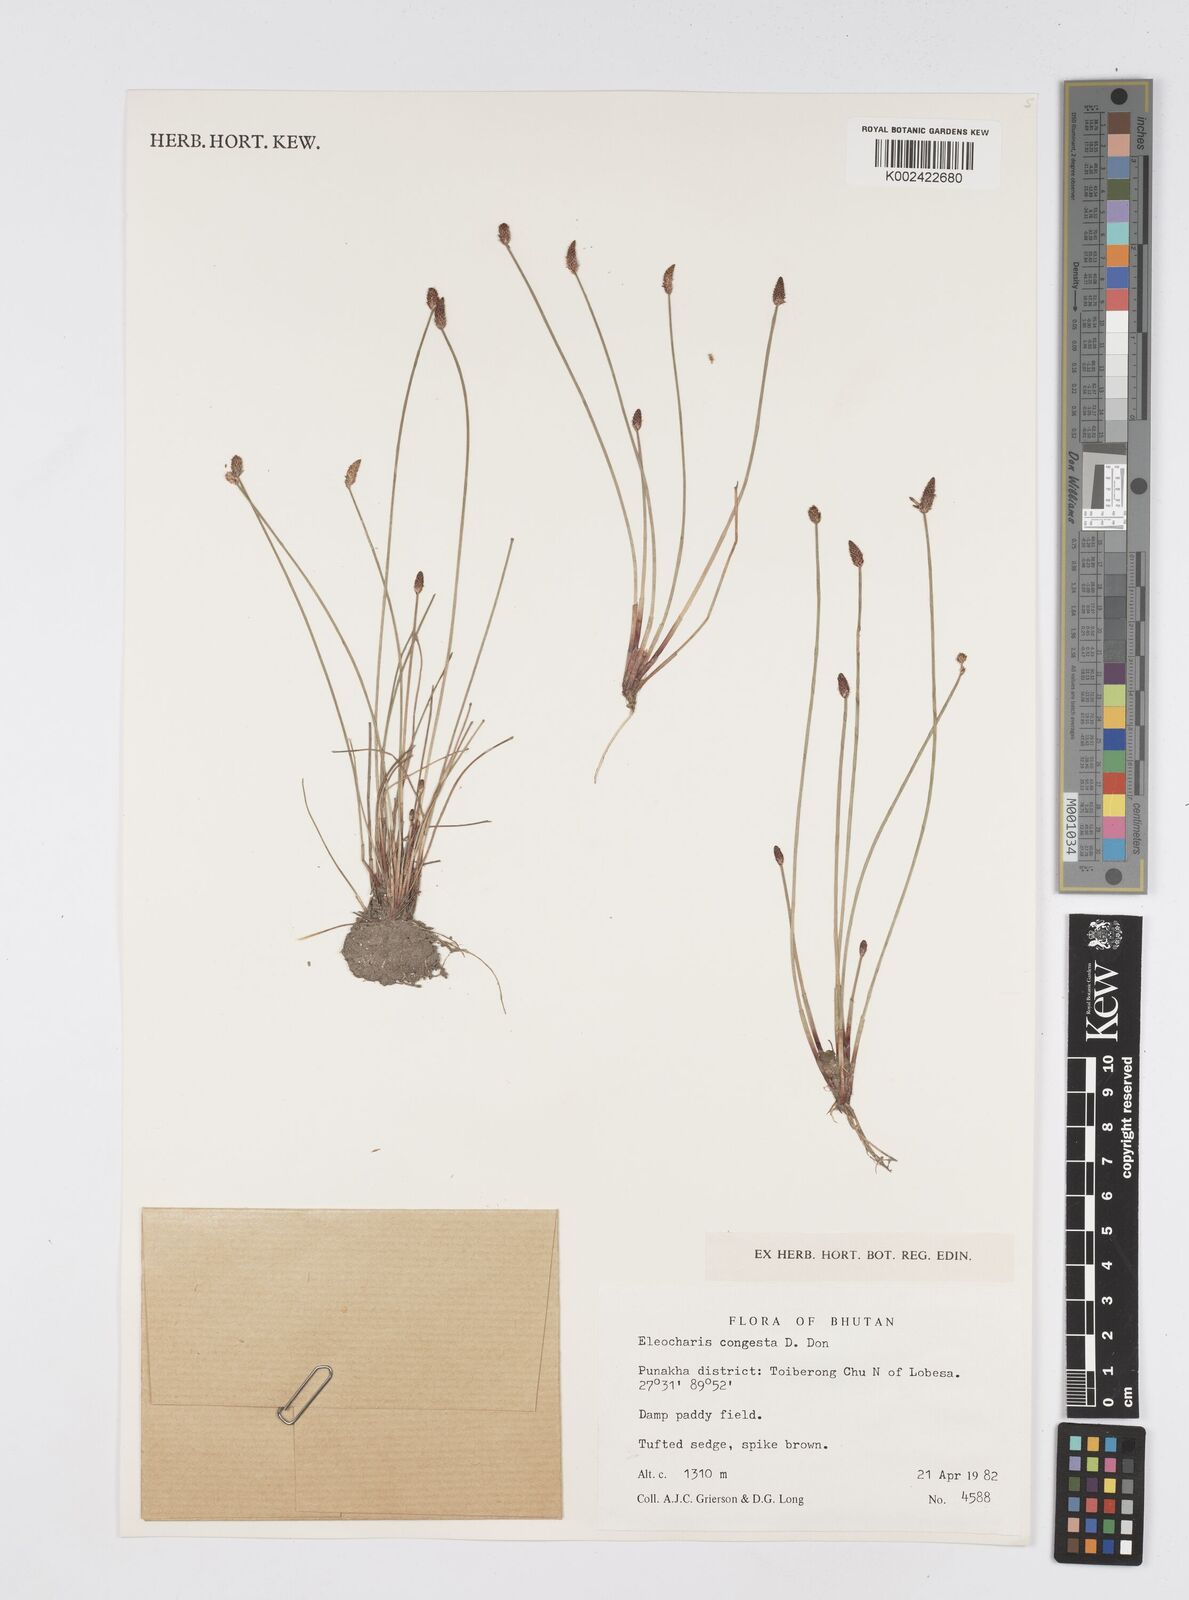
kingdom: Plantae
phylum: Tracheophyta
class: Liliopsida
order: Poales
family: Cyperaceae
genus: Eleocharis
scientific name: Eleocharis congesta
